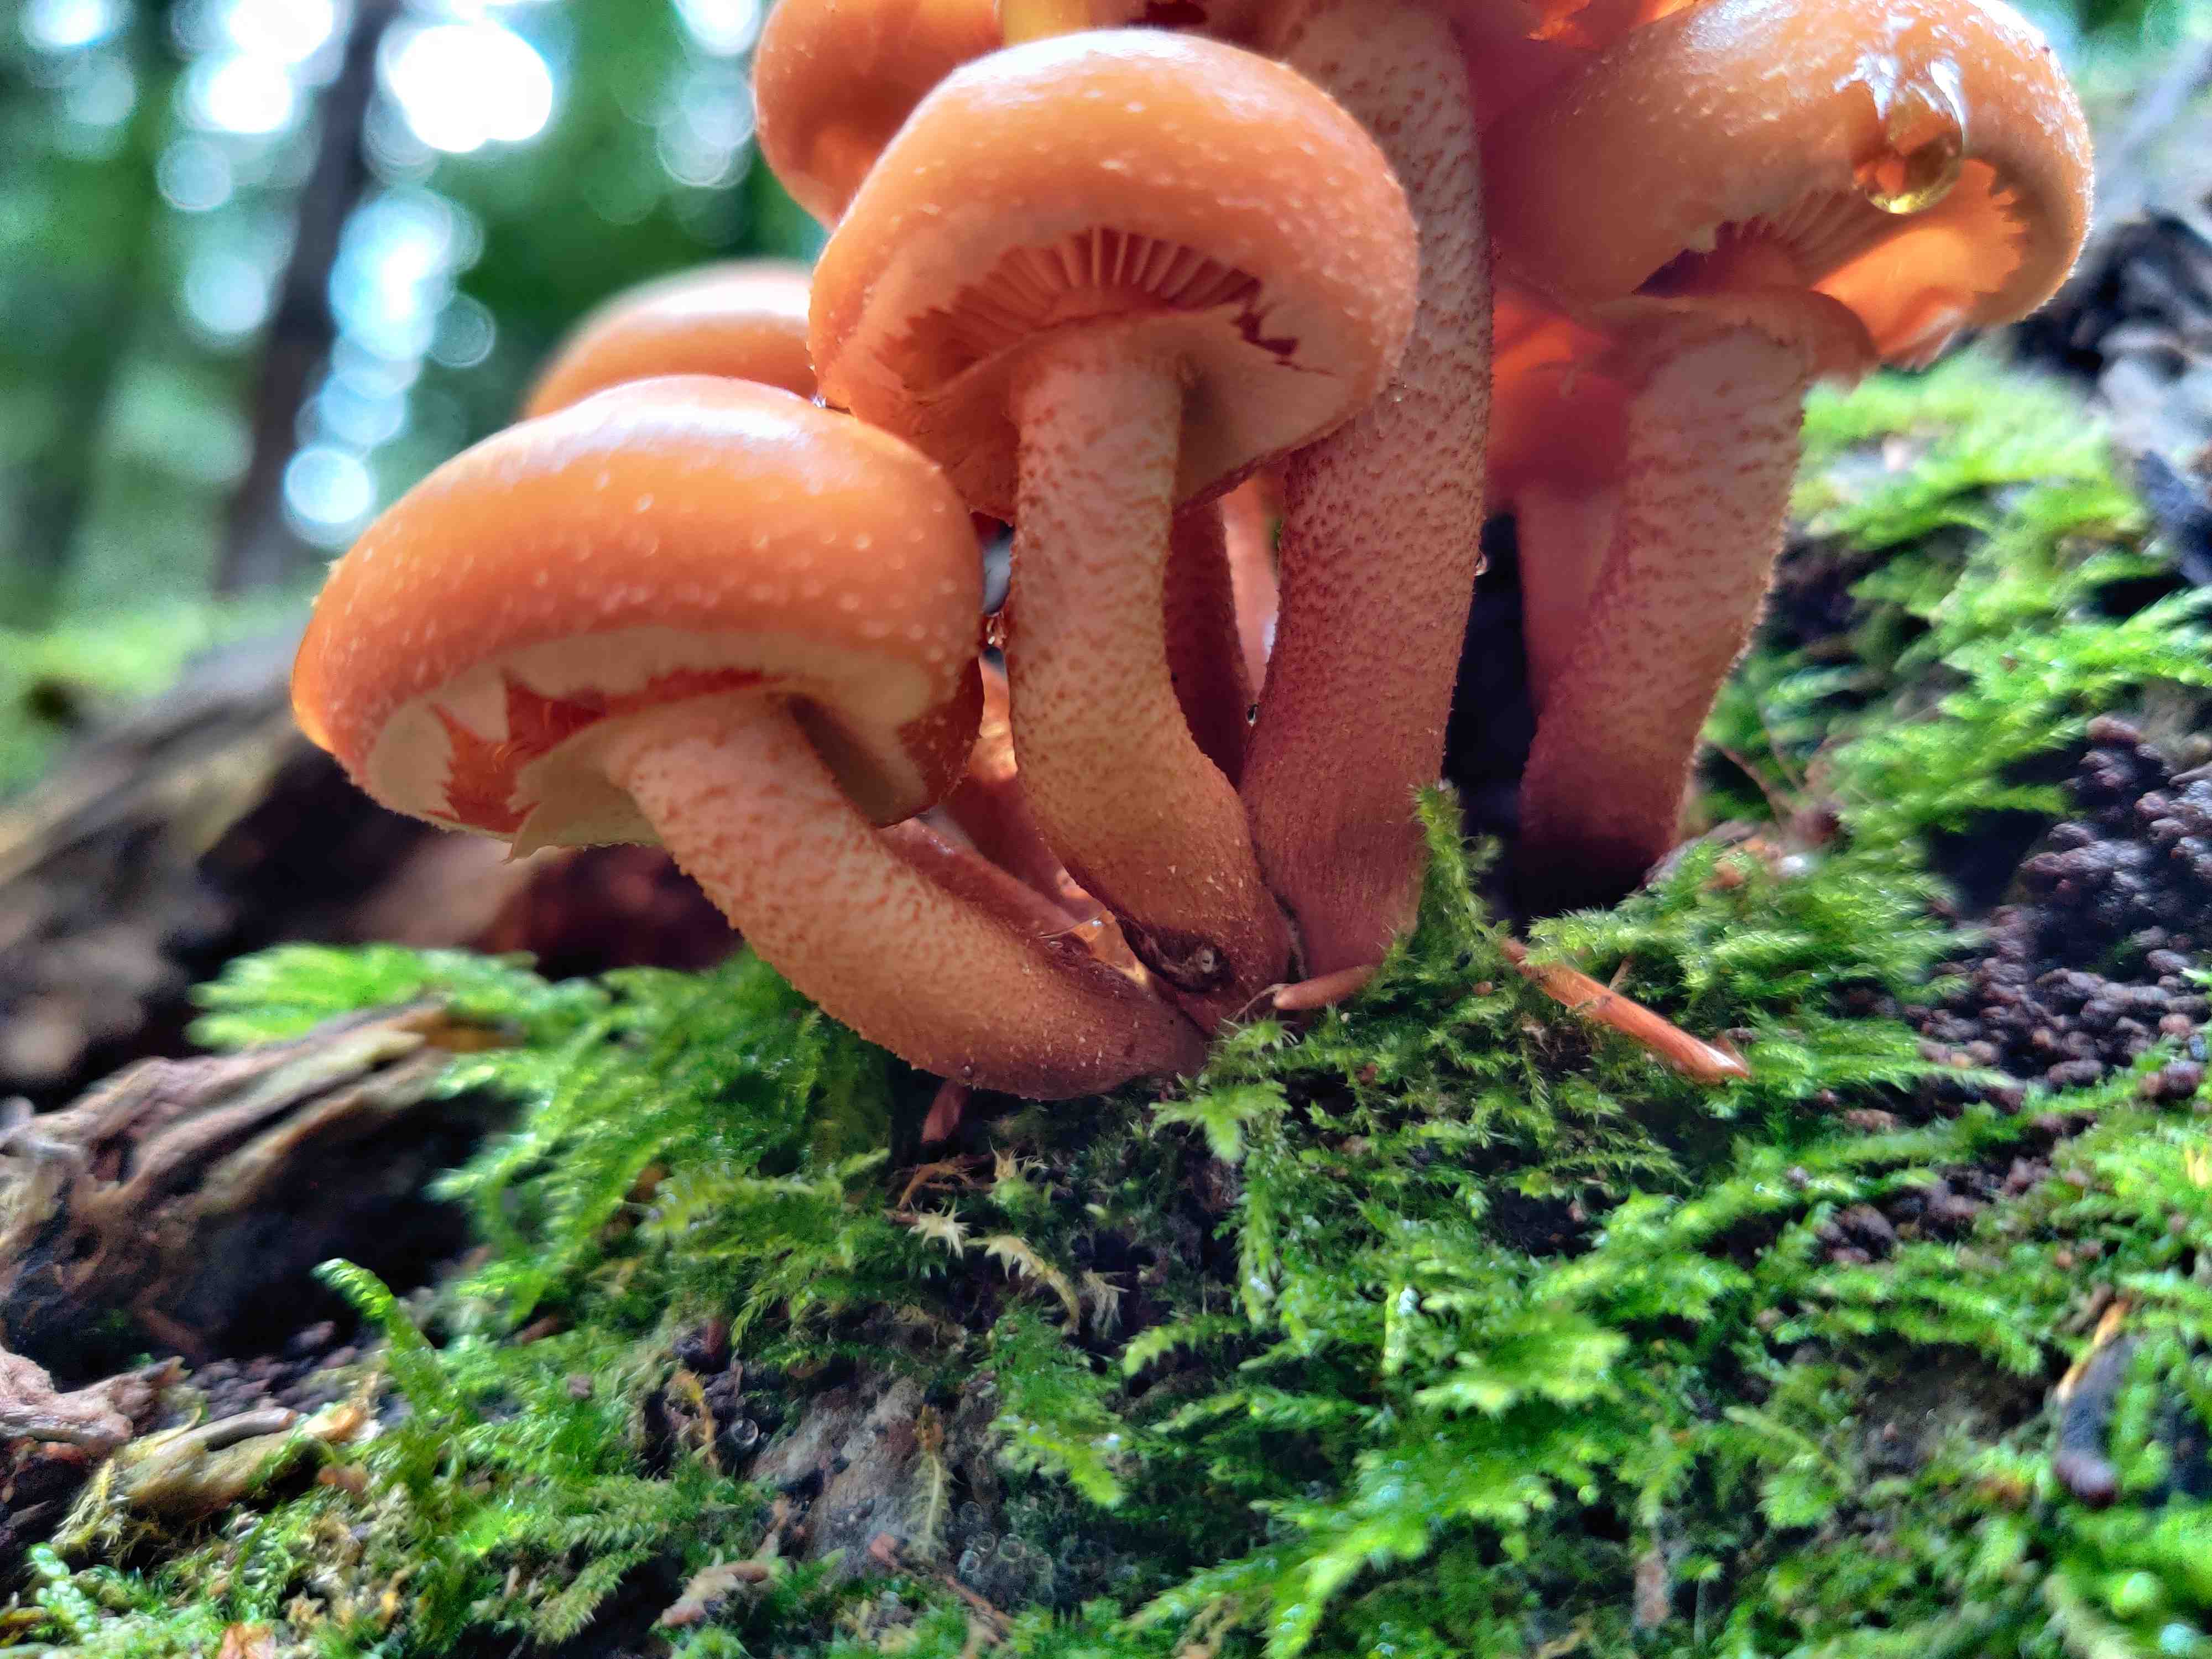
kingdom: Fungi
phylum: Basidiomycota
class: Agaricomycetes
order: Agaricales
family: Strophariaceae
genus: Kuehneromyces
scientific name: Kuehneromyces mutabilis
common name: foranderlig skælhat
